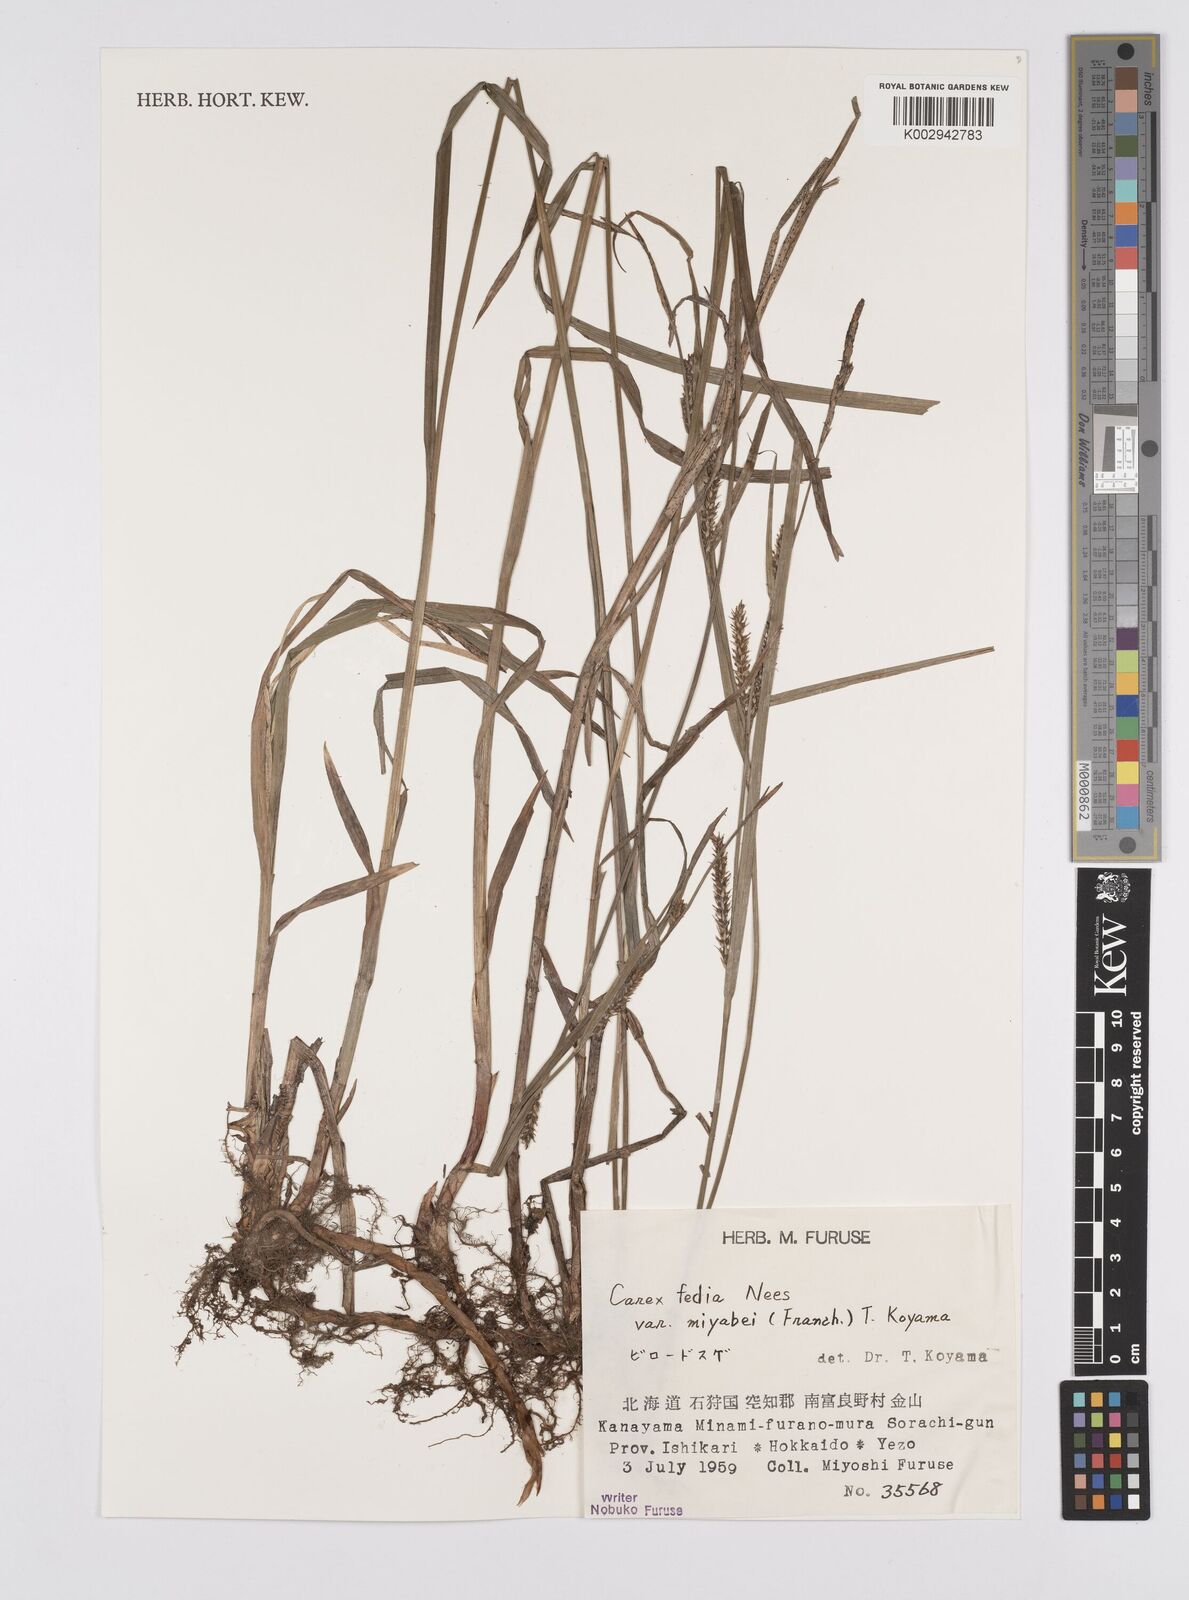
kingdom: Plantae
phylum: Tracheophyta
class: Liliopsida
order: Poales
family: Cyperaceae
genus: Carex
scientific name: Carex fedia
